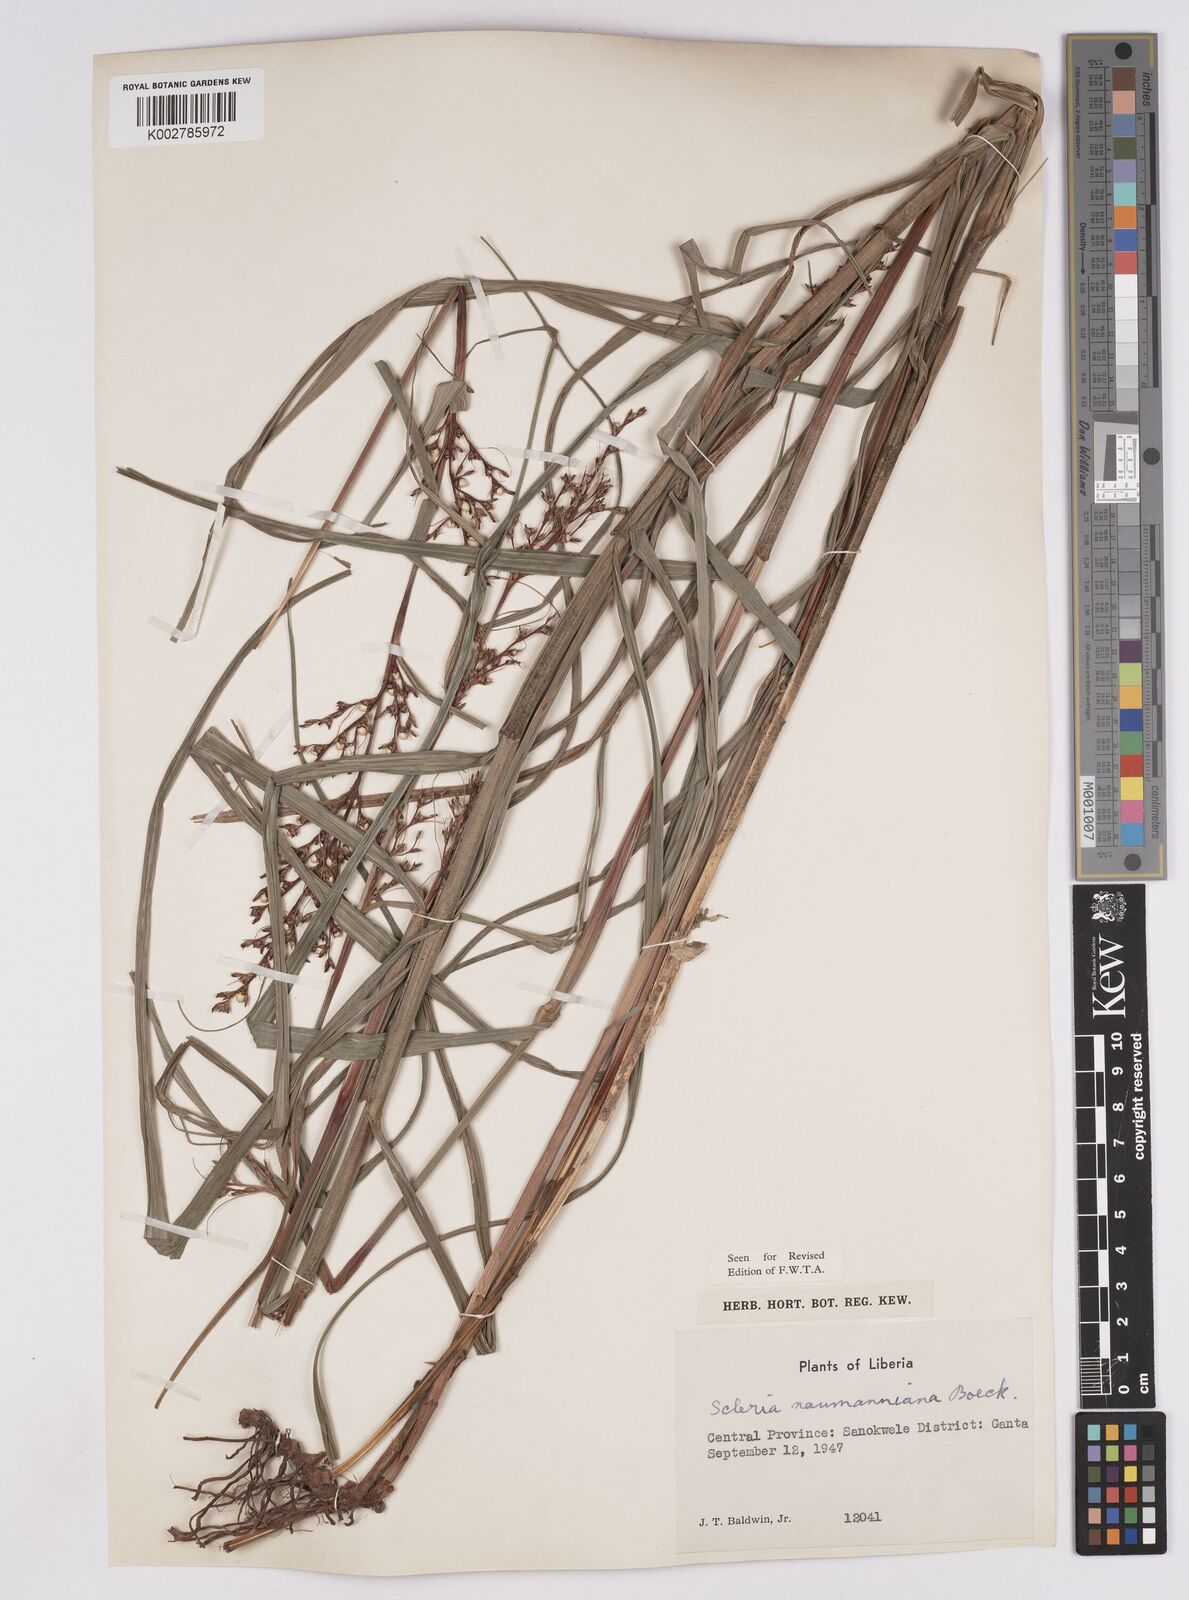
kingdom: Plantae
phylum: Tracheophyta
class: Liliopsida
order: Poales
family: Cyperaceae
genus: Scleria
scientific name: Scleria naumanniana
